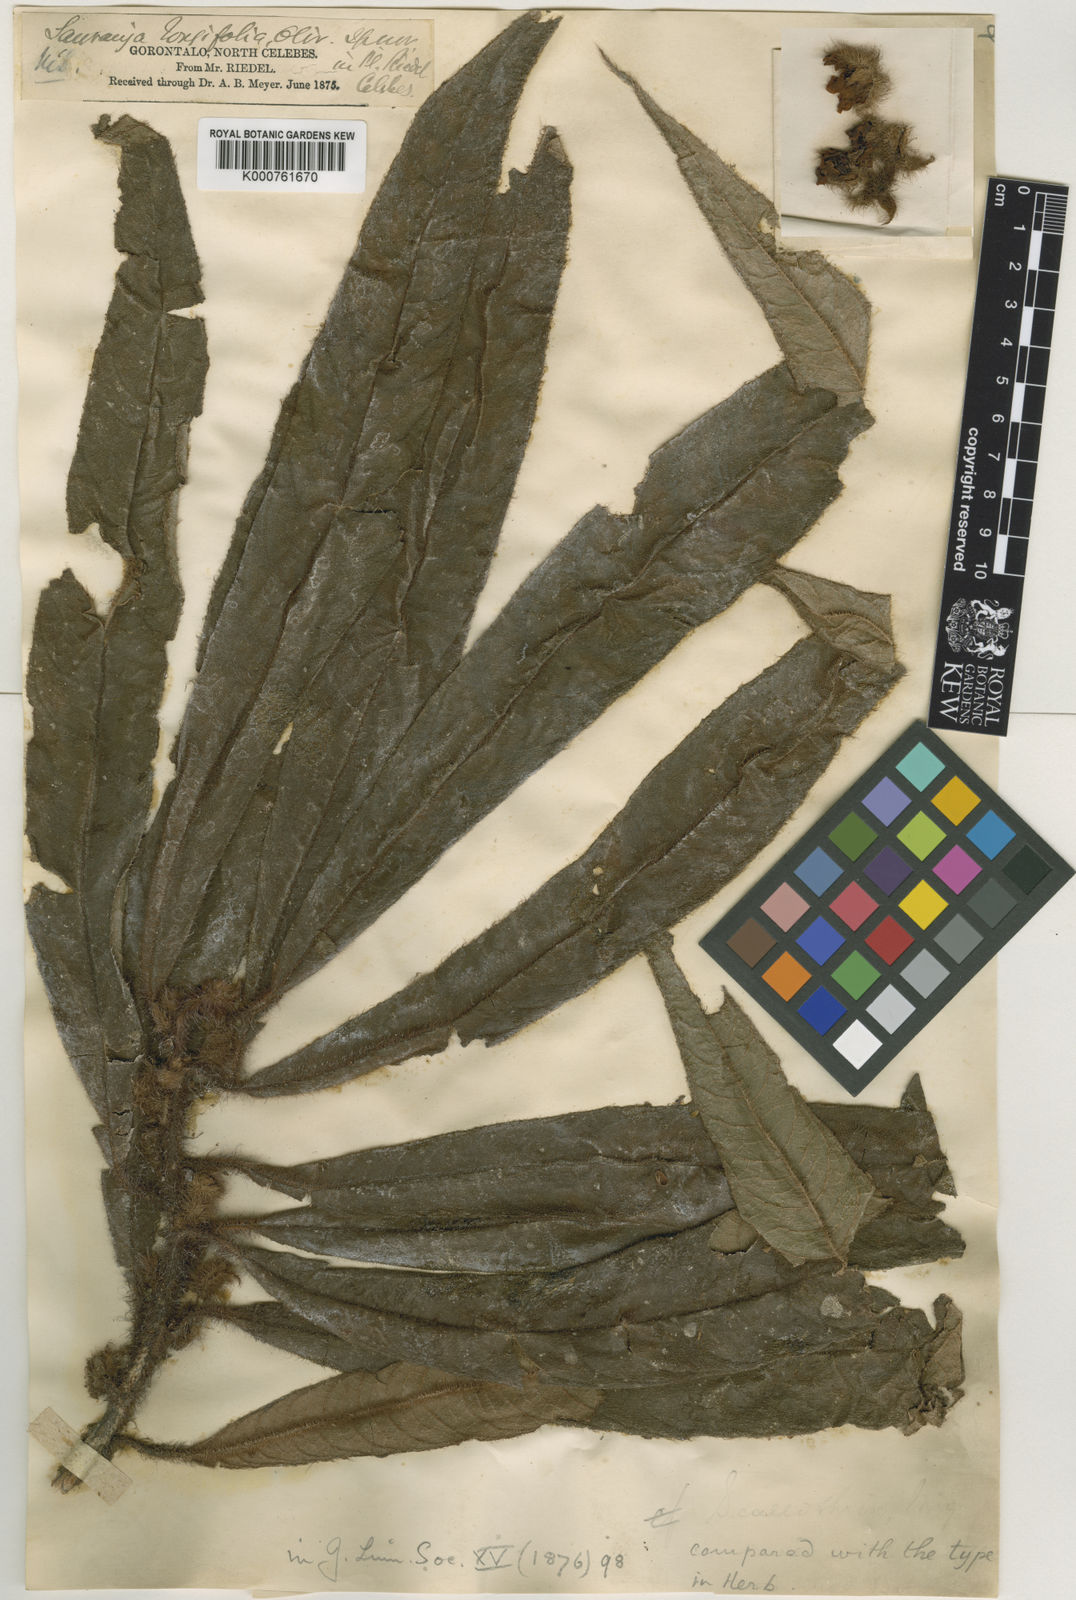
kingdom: Plantae
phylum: Tracheophyta
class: Magnoliopsida
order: Ericales
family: Actinidiaceae
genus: Saurauia
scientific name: Saurauia callithrix
